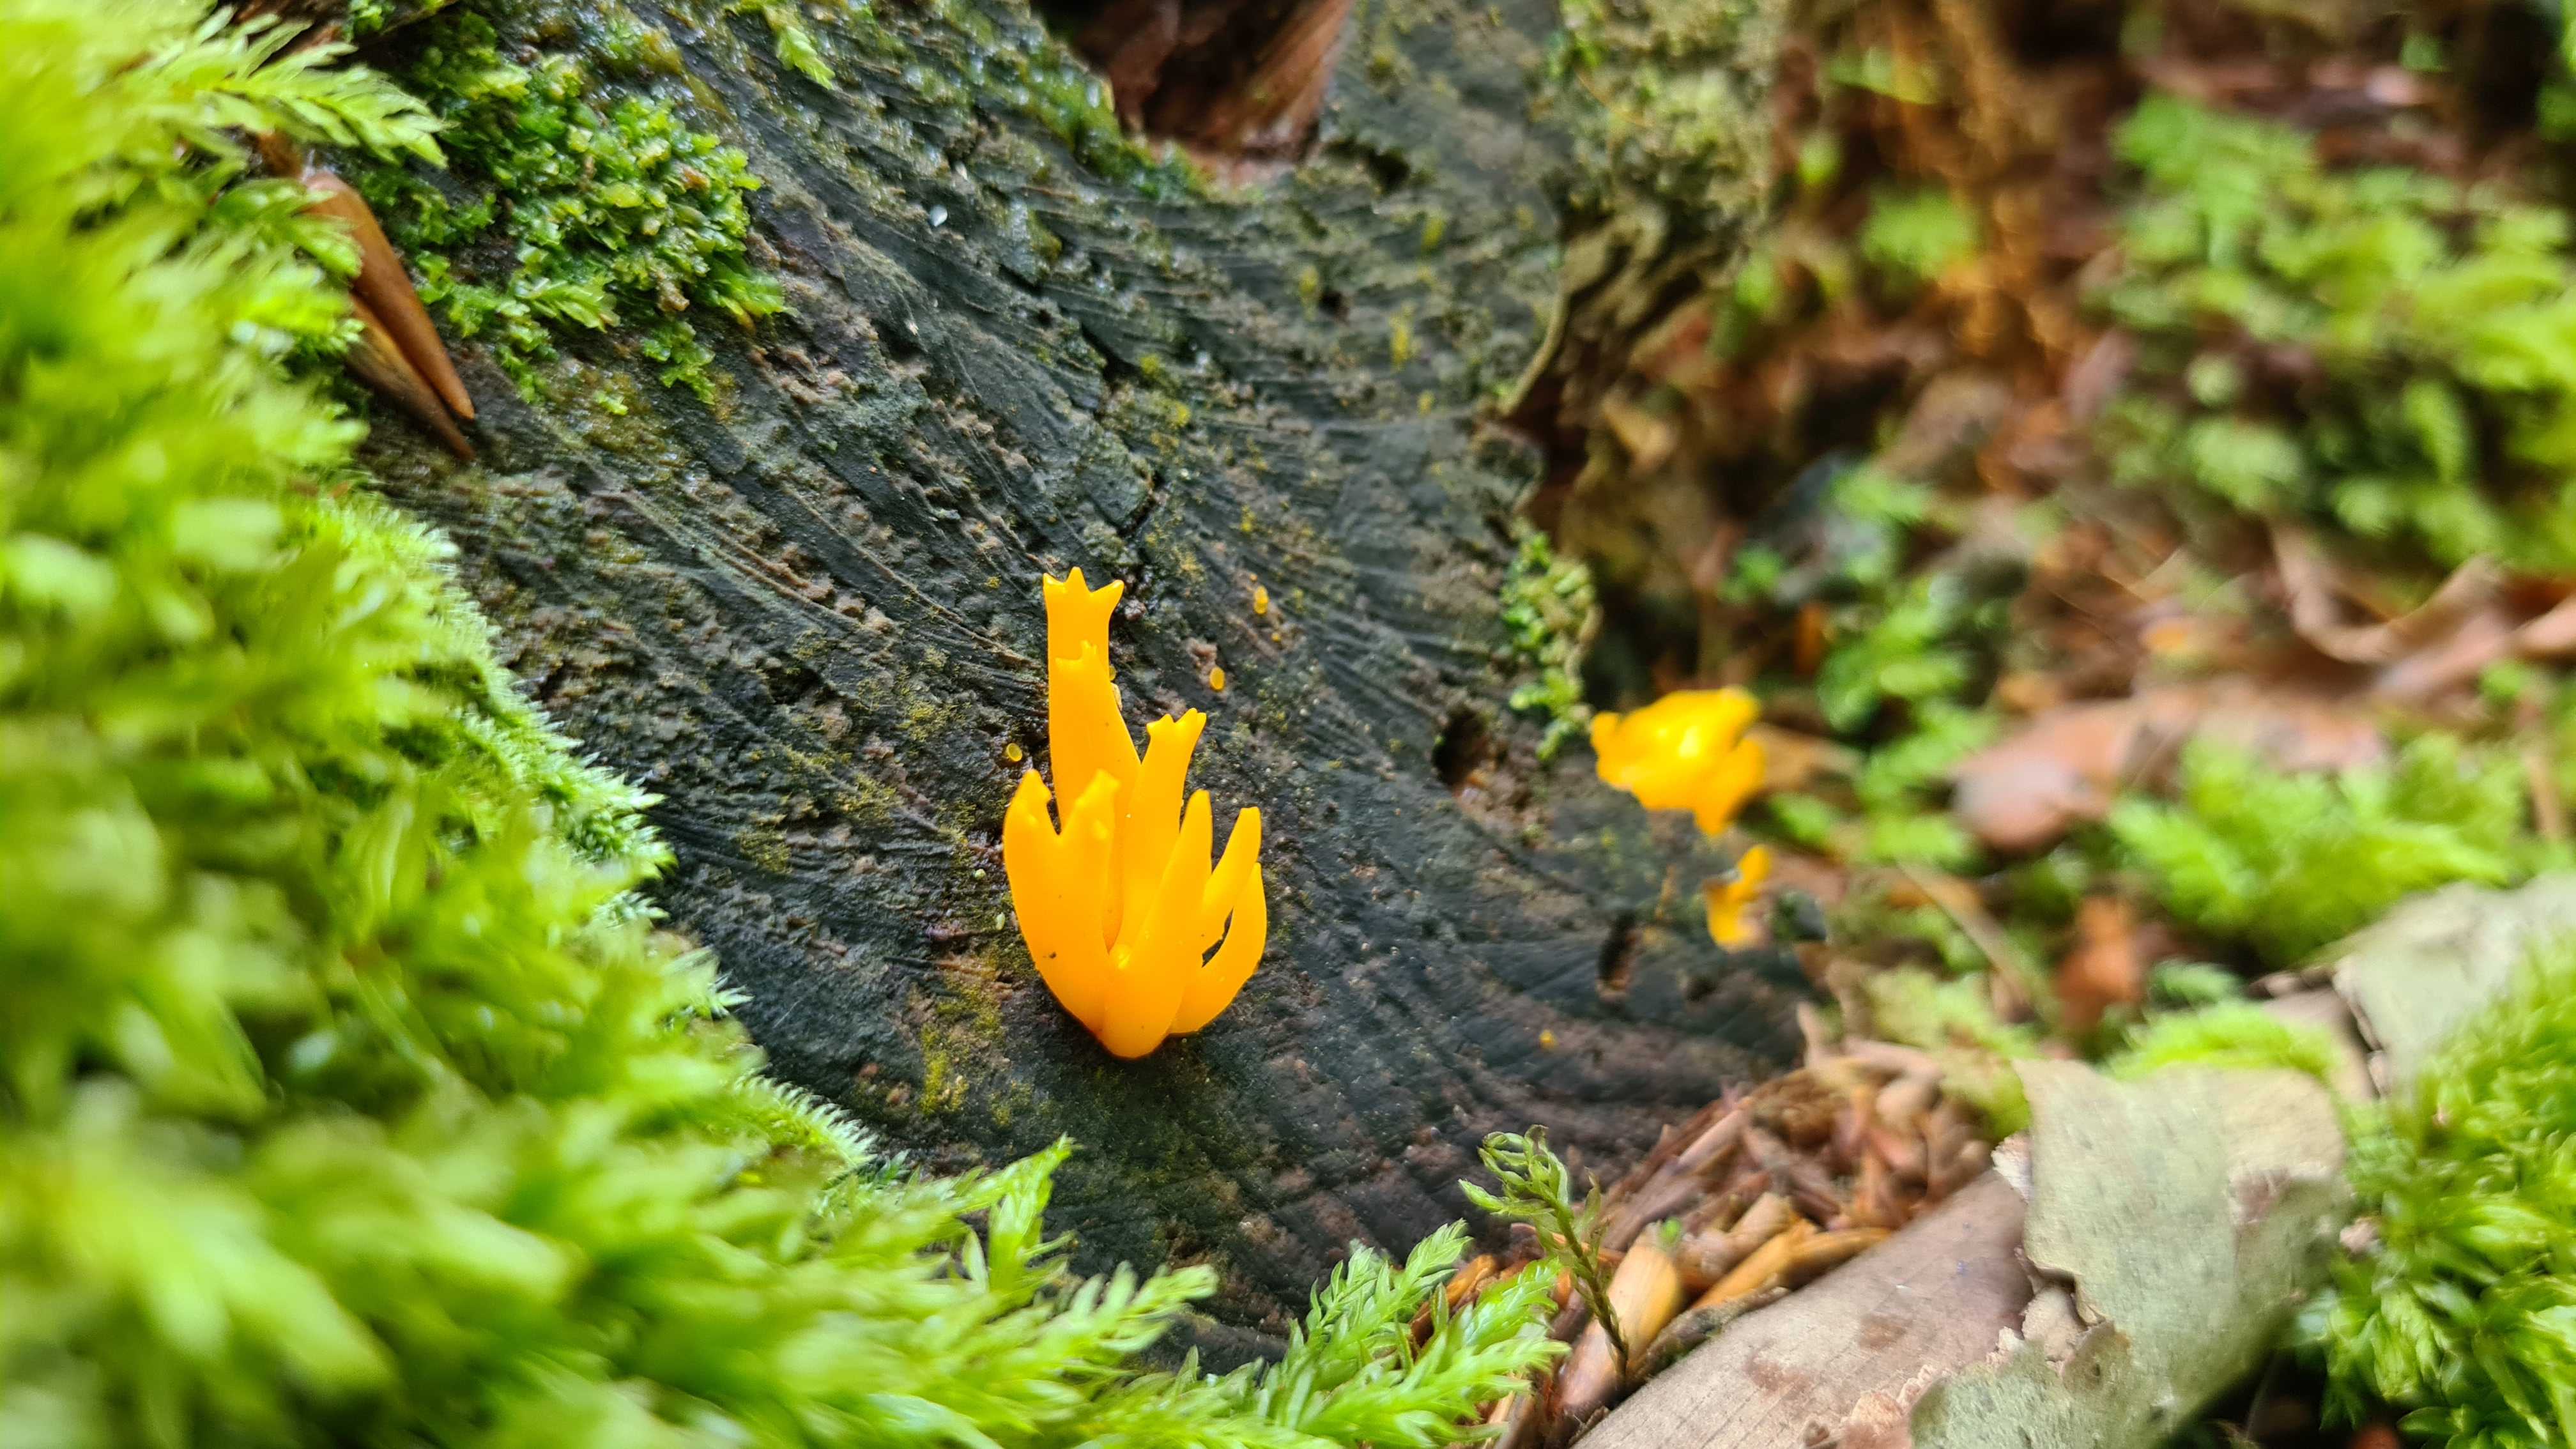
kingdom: Fungi
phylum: Basidiomycota
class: Dacrymycetes
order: Dacrymycetales
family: Dacrymycetaceae
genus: Calocera
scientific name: Calocera viscosa
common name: almindelig guldgaffel
